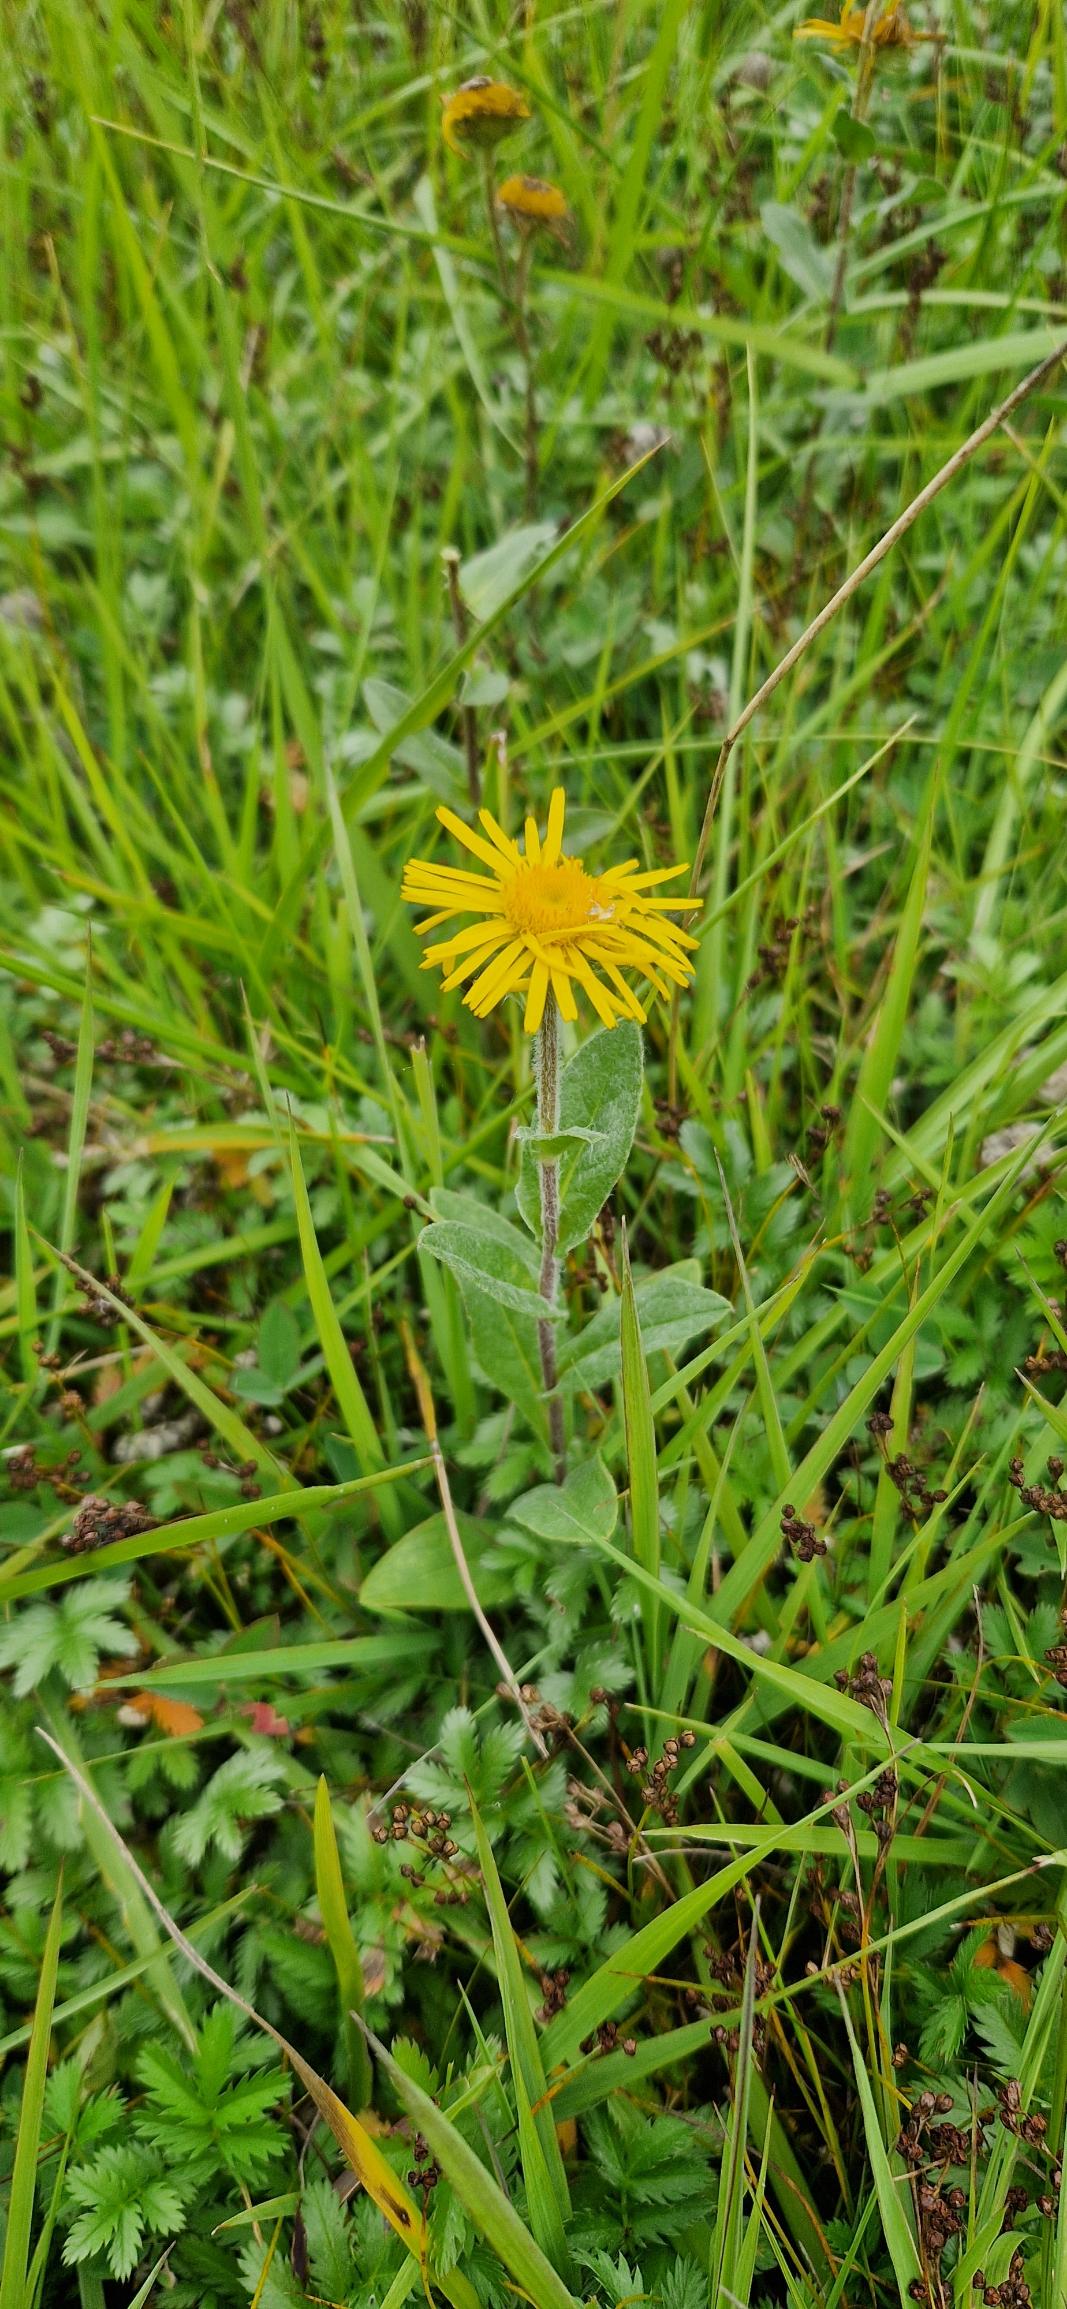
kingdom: Plantae
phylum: Tracheophyta
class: Magnoliopsida
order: Asterales
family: Asteraceae
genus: Pentanema
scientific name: Pentanema britannicum
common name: Soløje-alant
